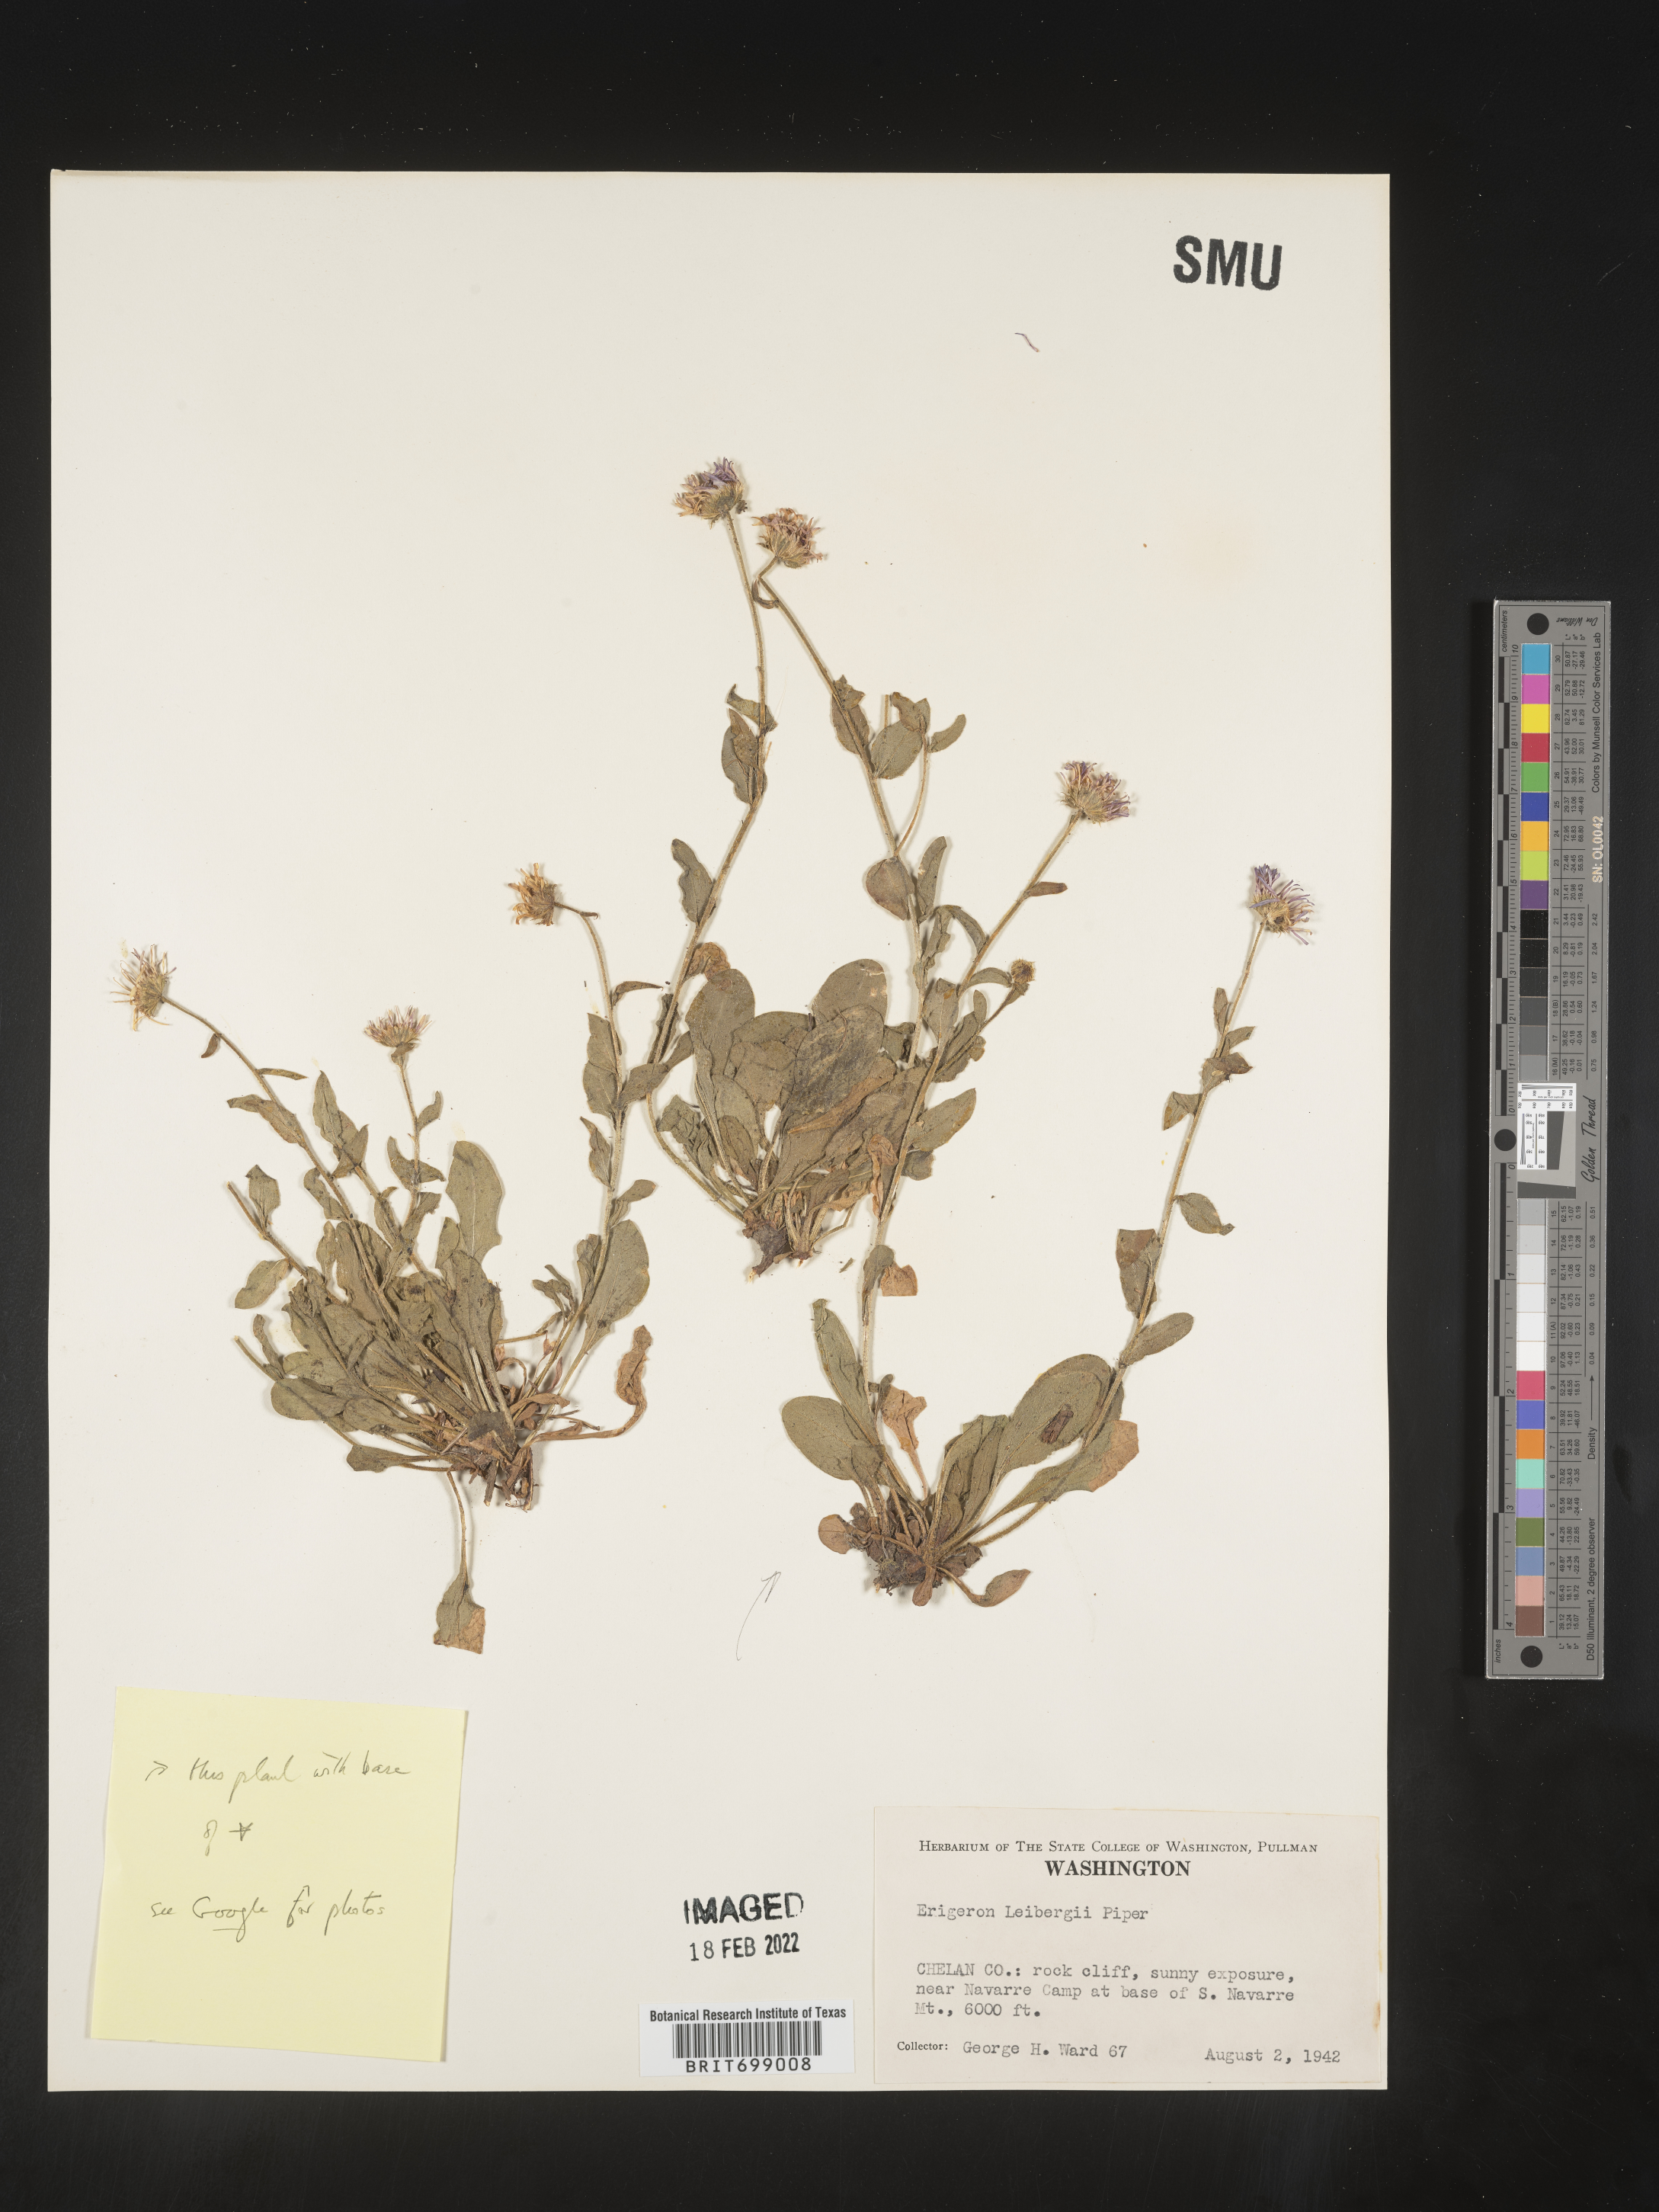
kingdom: Plantae
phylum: Tracheophyta
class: Magnoliopsida
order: Asterales
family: Asteraceae
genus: Erigeron
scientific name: Erigeron leibergii
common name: Leiberg's daisy
